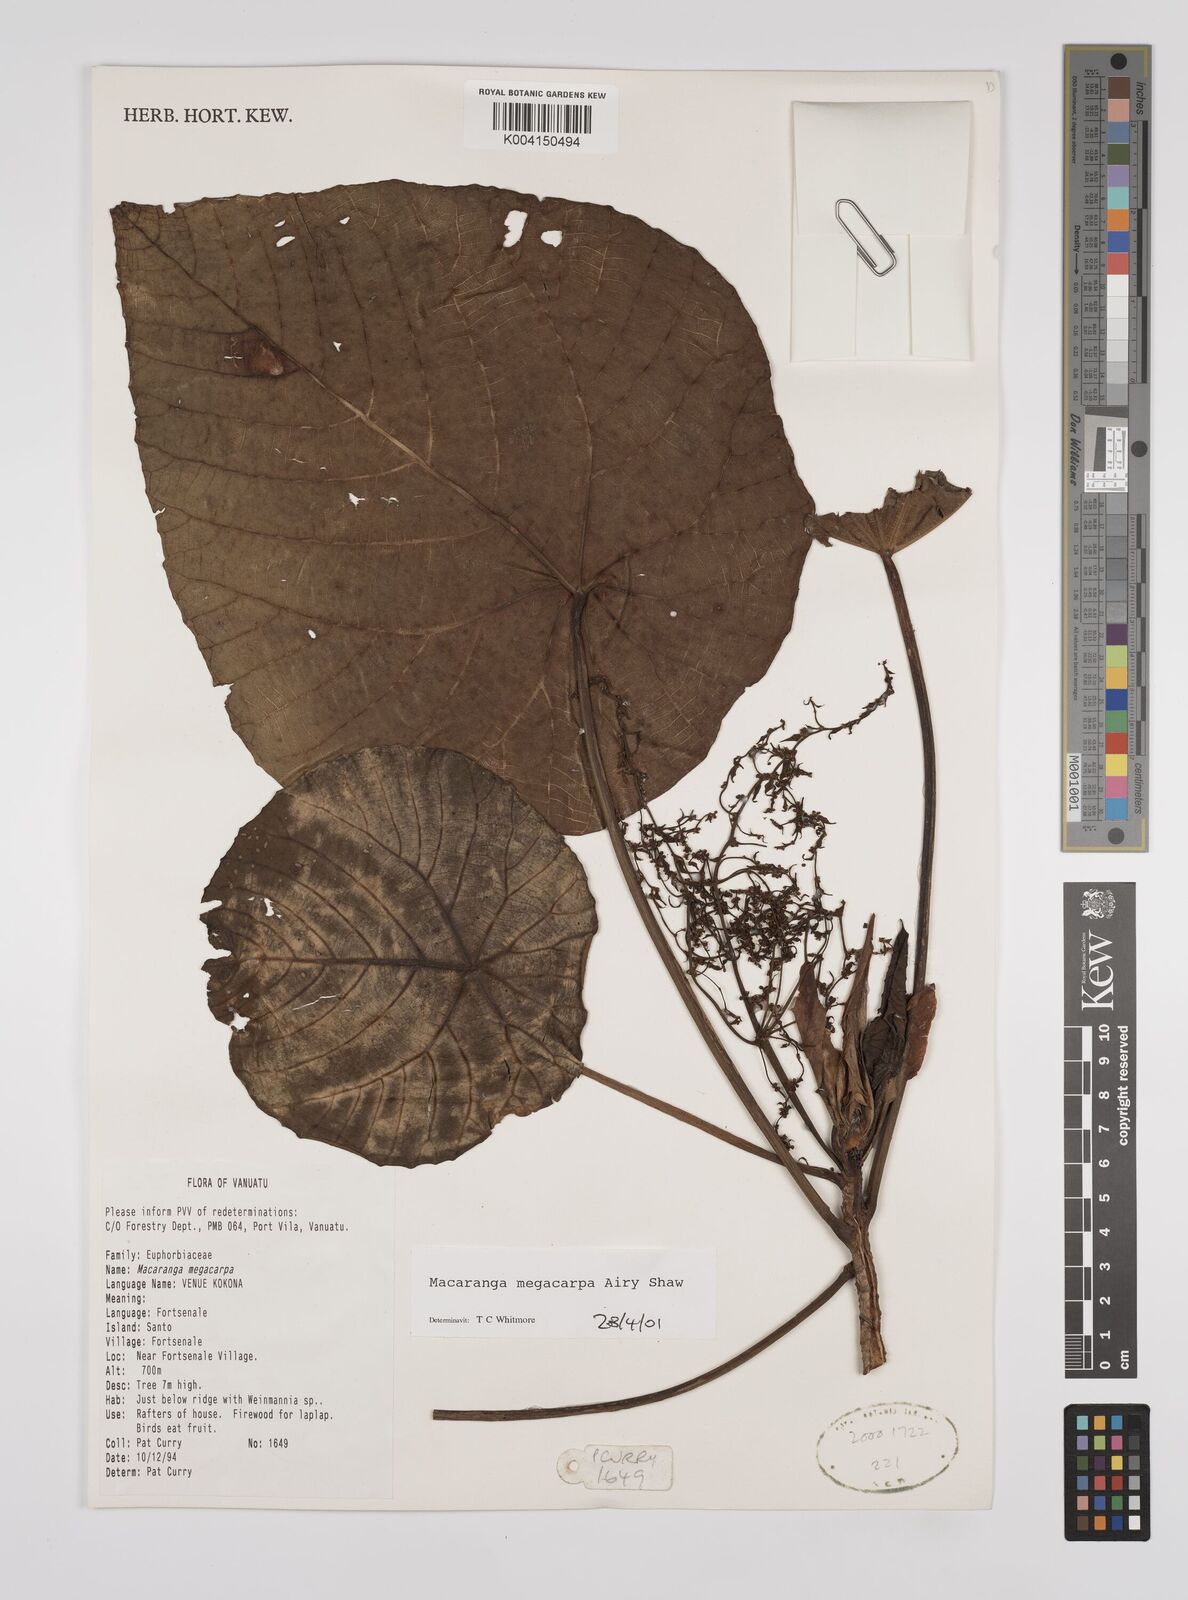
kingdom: Plantae
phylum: Tracheophyta
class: Magnoliopsida
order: Malpighiales
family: Euphorbiaceae
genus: Macaranga
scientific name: Macaranga megacarpa
